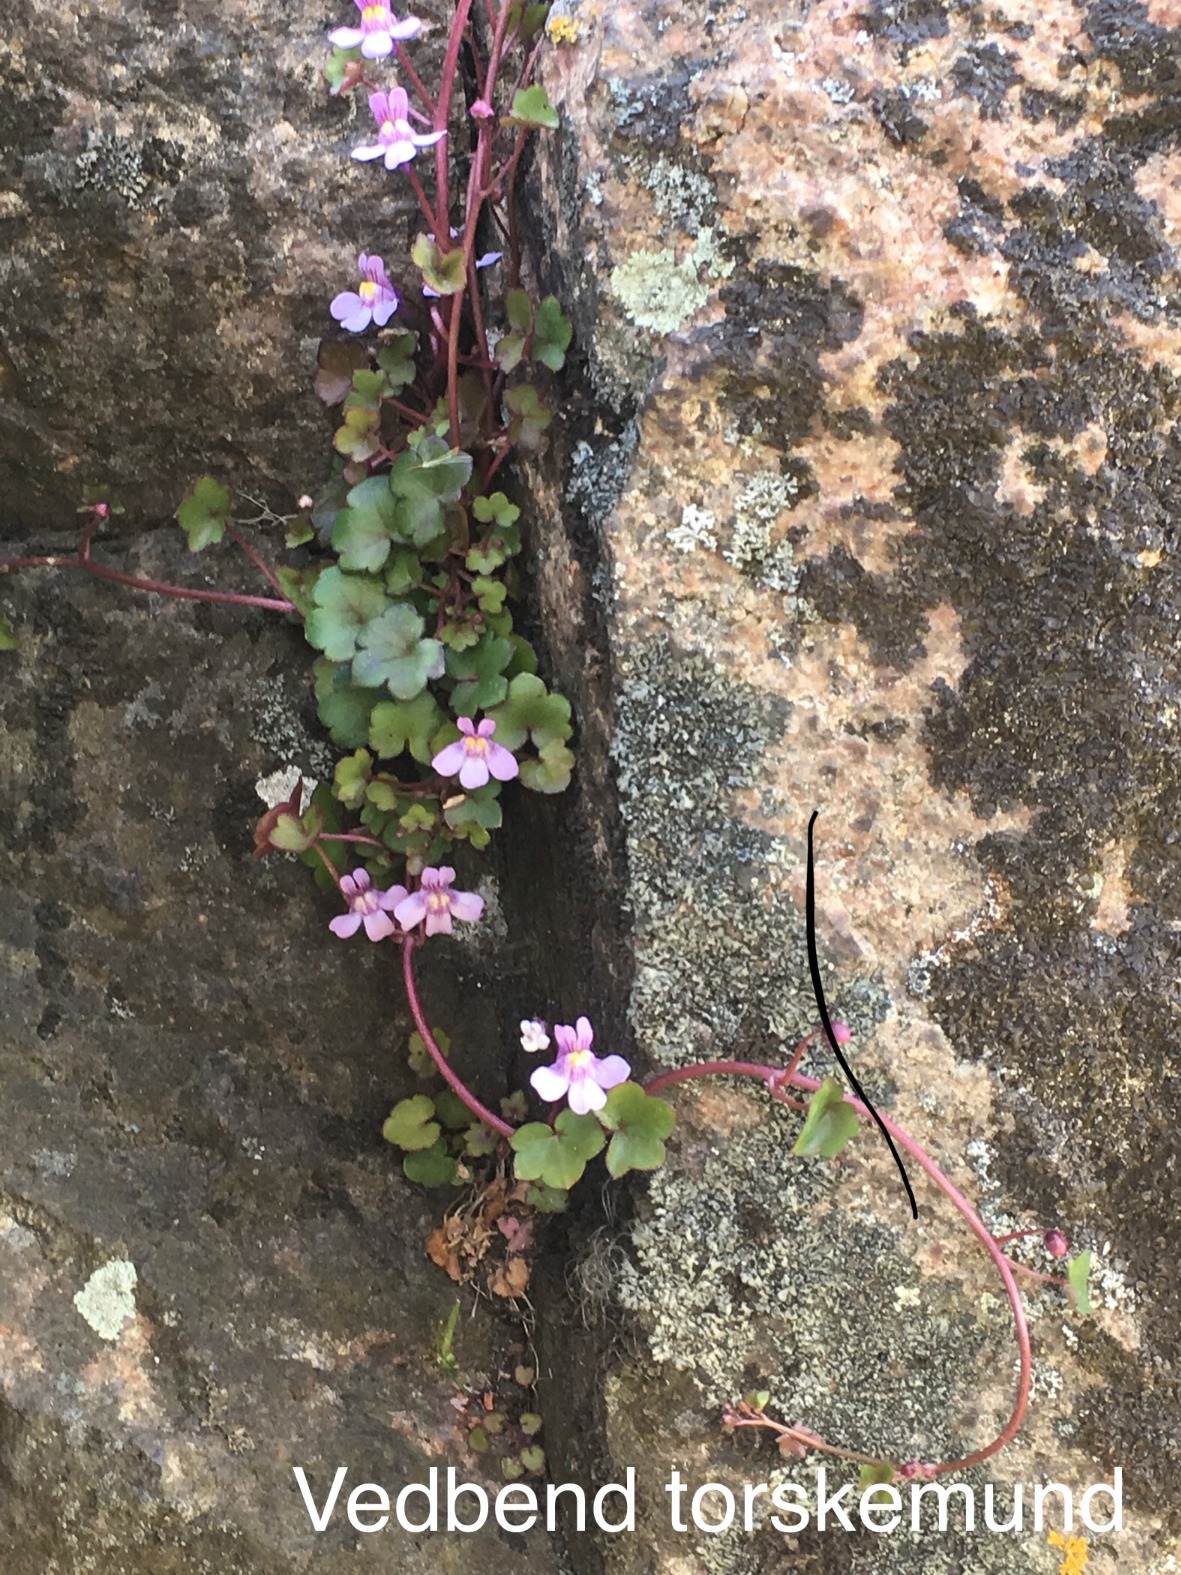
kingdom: Plantae
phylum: Tracheophyta
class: Magnoliopsida
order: Lamiales
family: Plantaginaceae
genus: Cymbalaria
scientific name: Cymbalaria muralis
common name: Vedbend-torskemund
